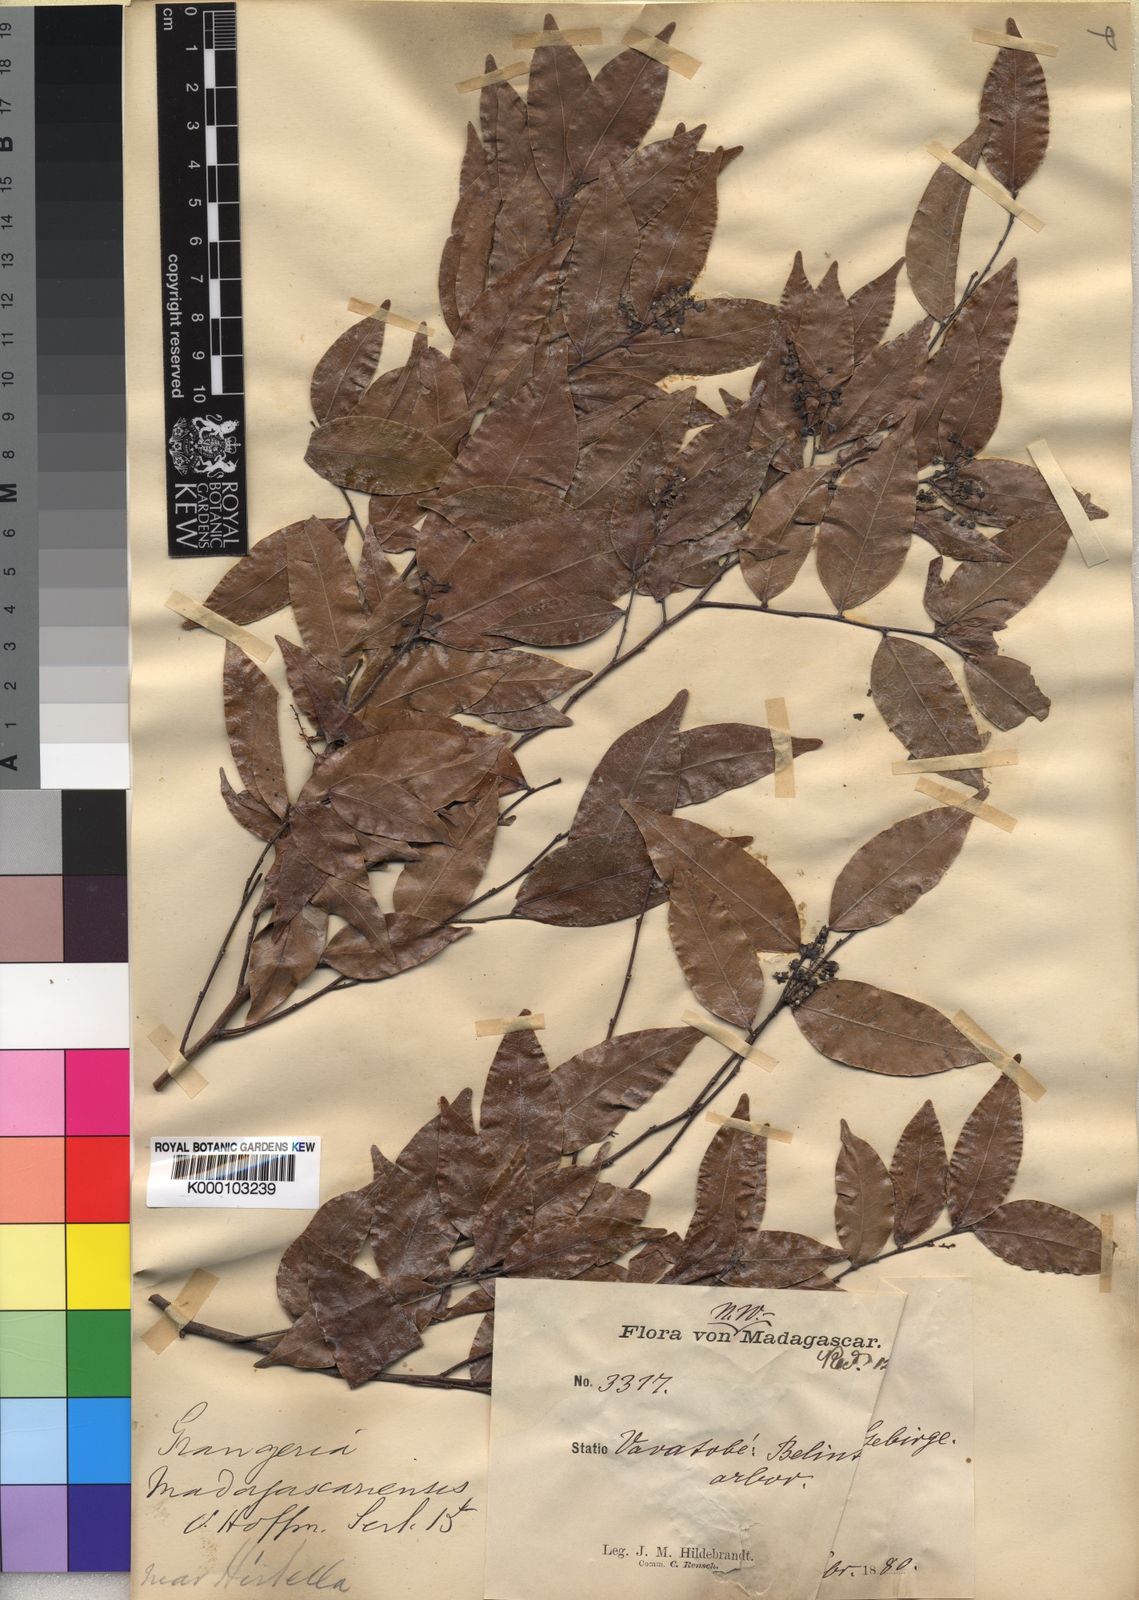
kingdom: Plantae
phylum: Tracheophyta
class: Magnoliopsida
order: Malpighiales
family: Chrysobalanaceae
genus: Grangeria
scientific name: Grangeria porosa
